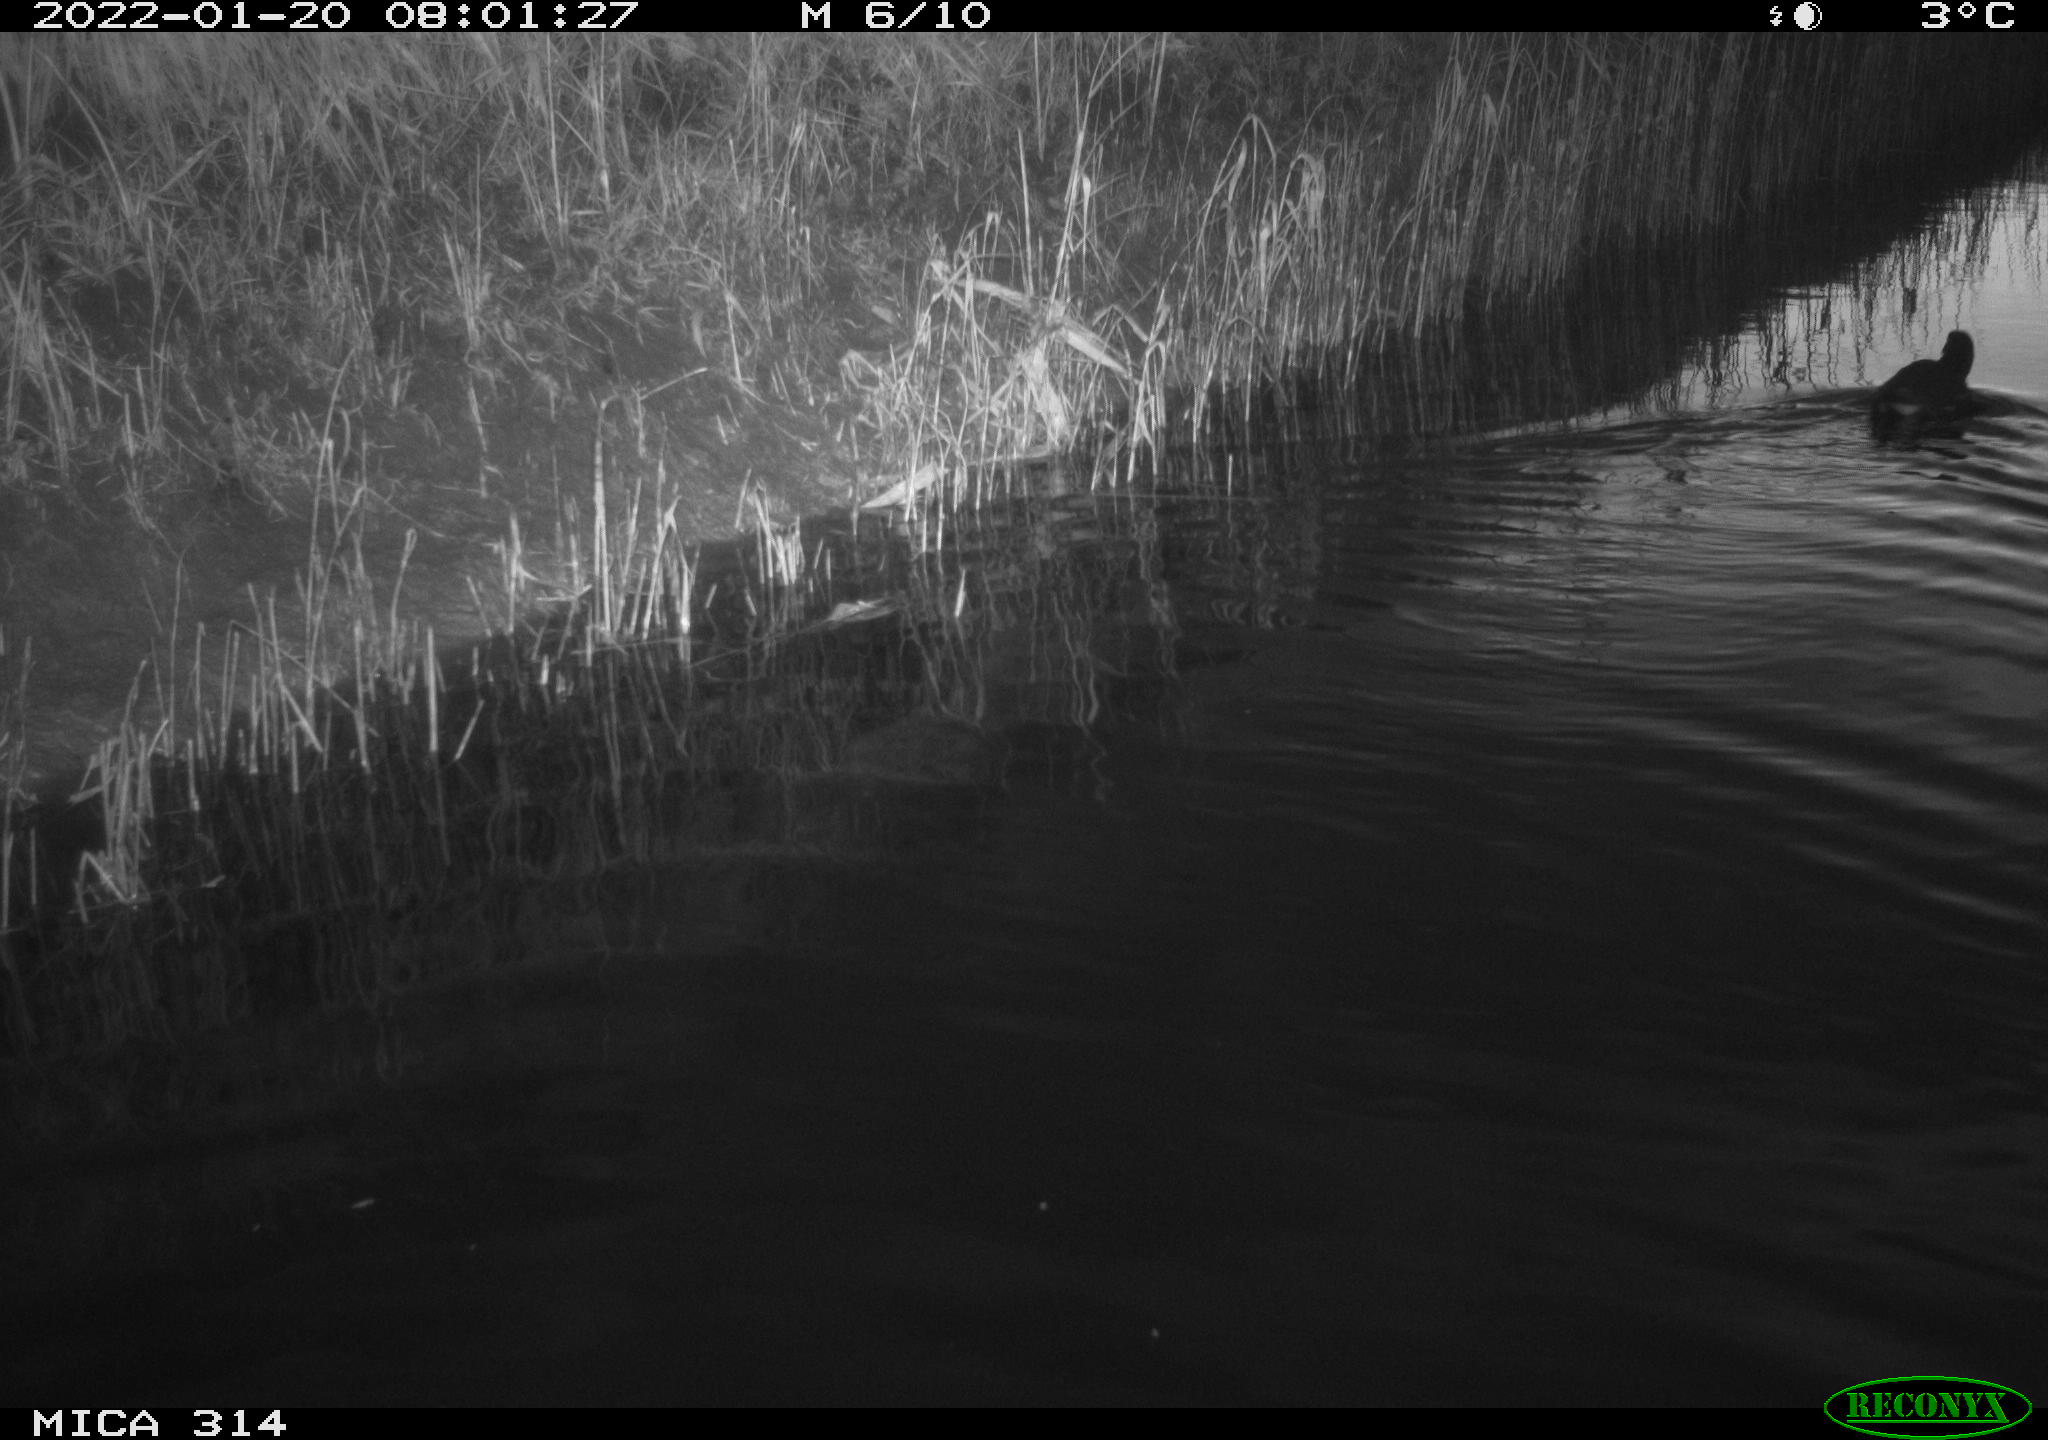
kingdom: Animalia
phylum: Chordata
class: Aves
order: Gruiformes
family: Rallidae
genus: Gallinula
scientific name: Gallinula chloropus
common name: Common moorhen
